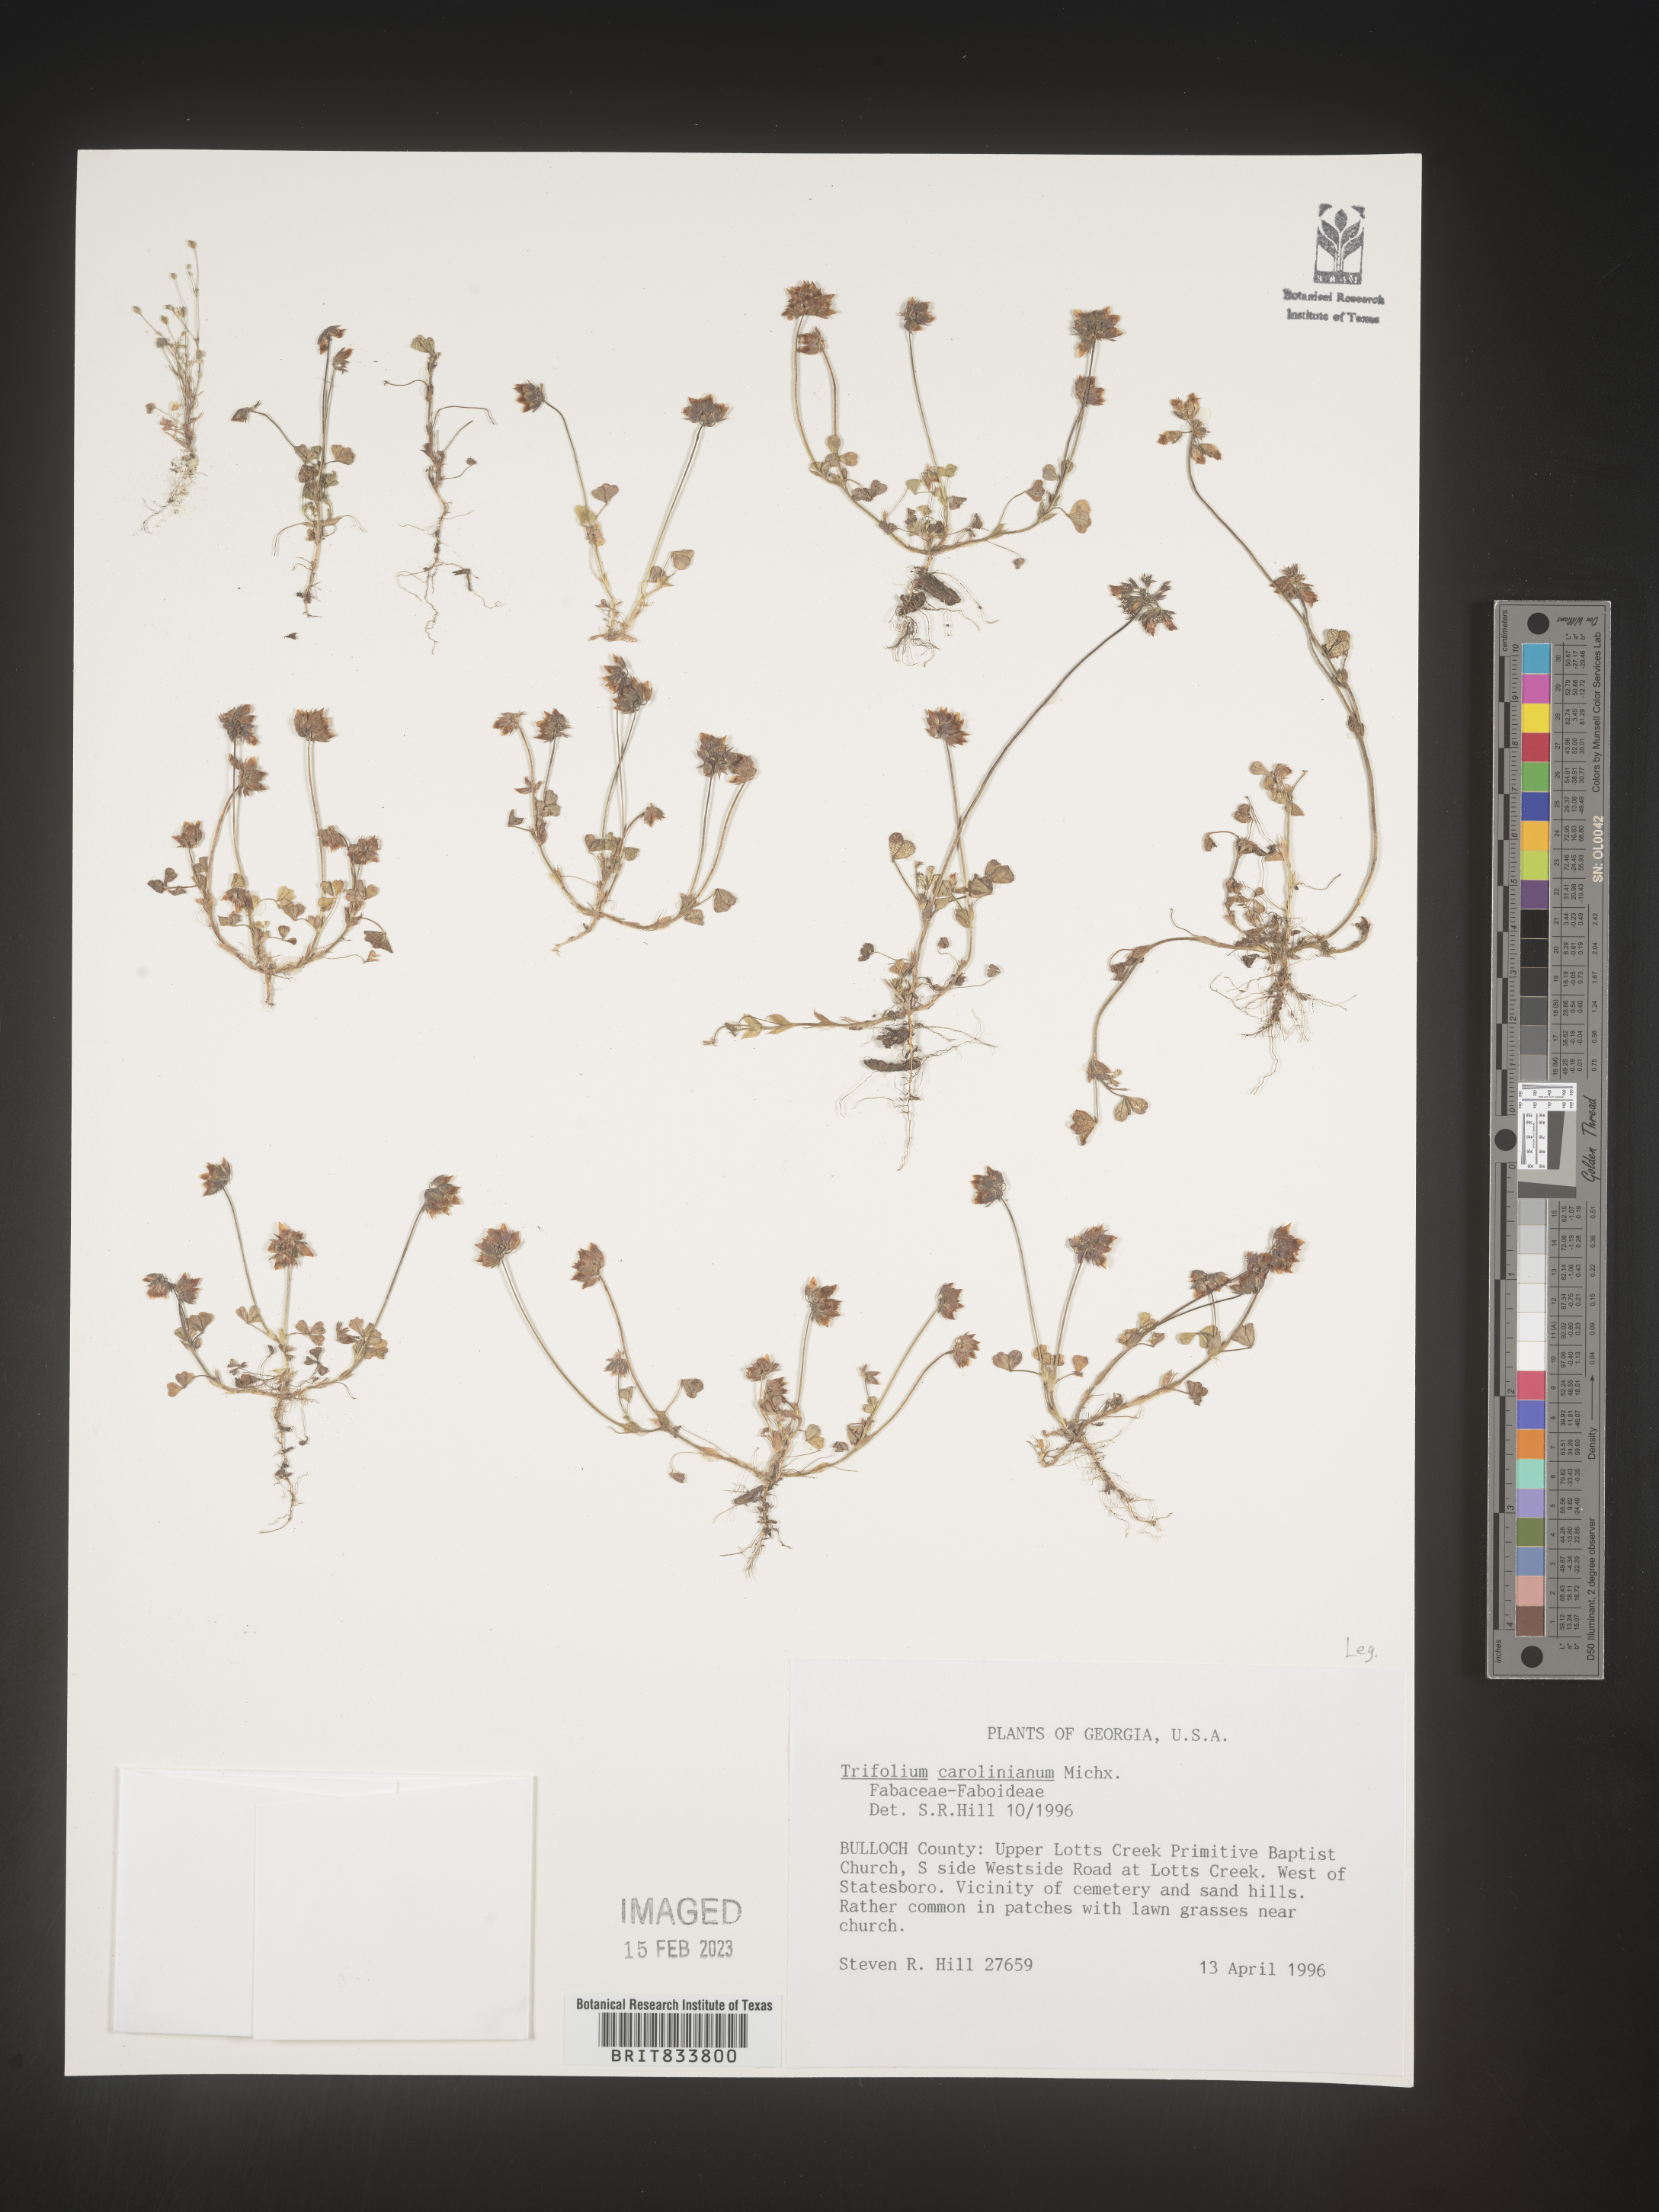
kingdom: Plantae
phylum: Tracheophyta
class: Magnoliopsida
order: Fabales
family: Fabaceae
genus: Trifolium
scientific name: Trifolium carolinianum
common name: Wild white clover
